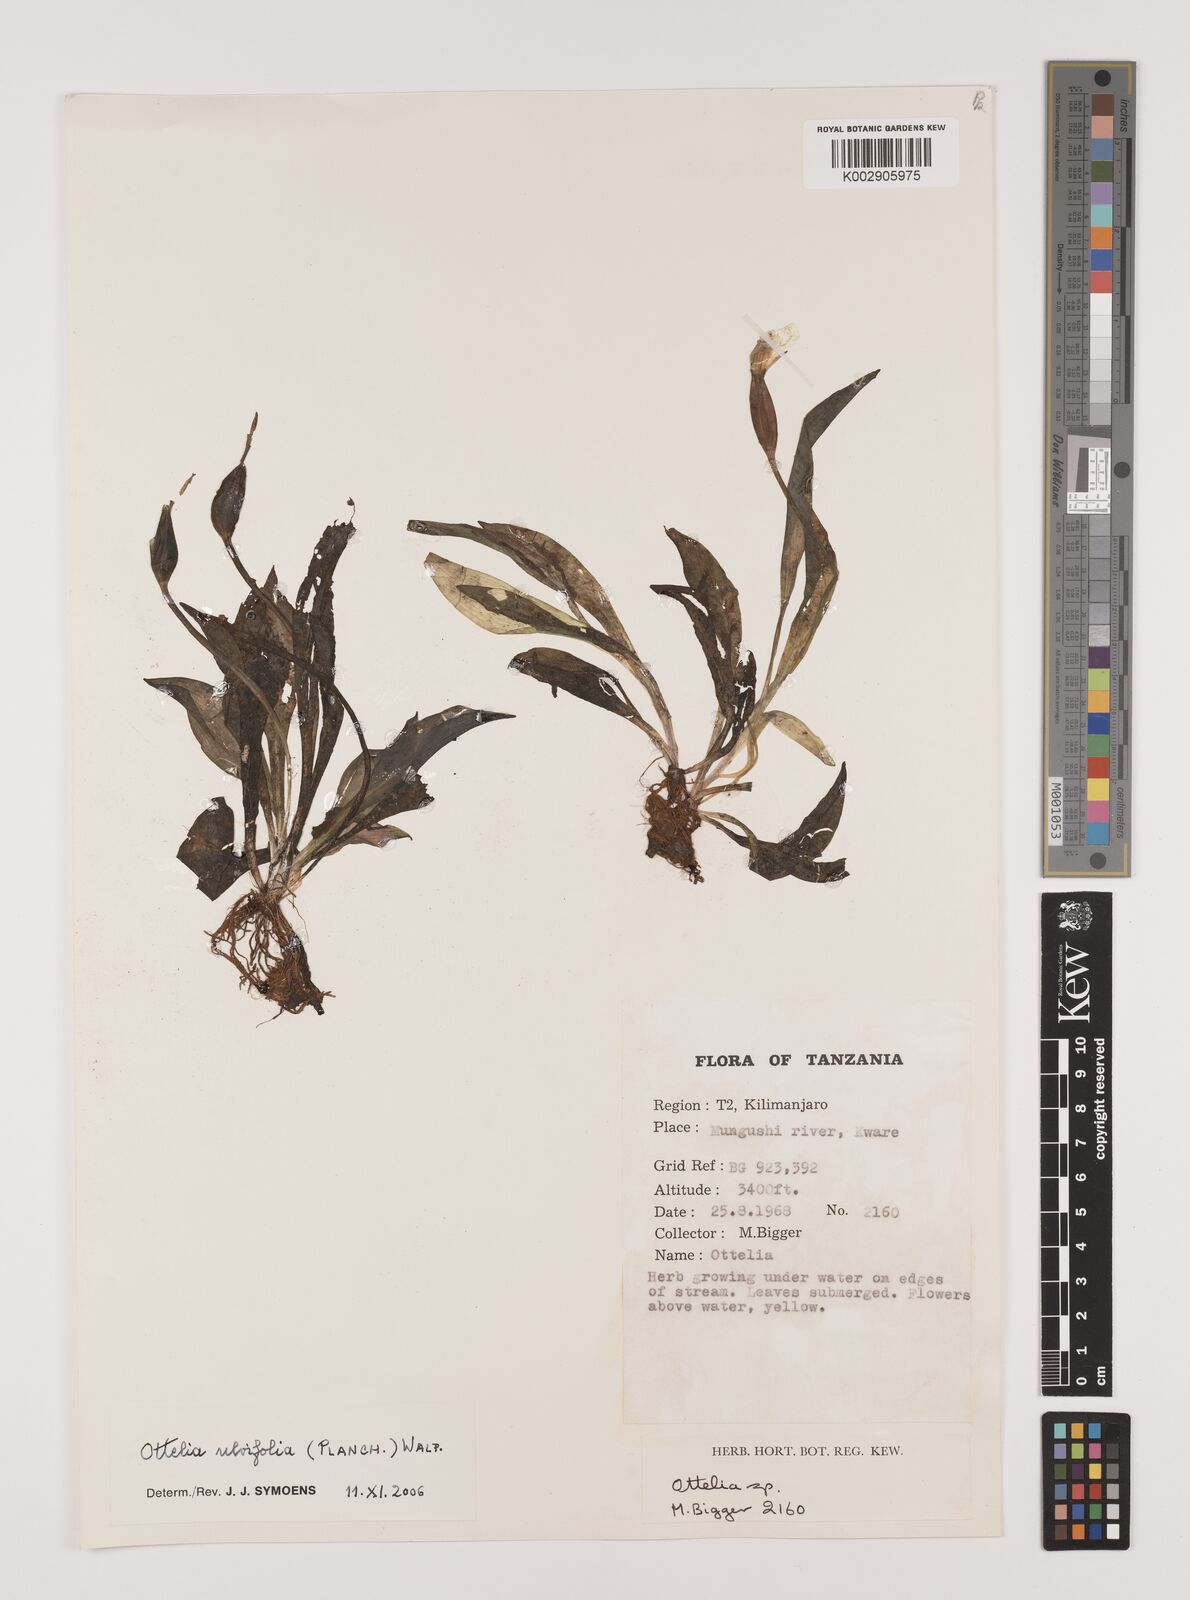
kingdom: Plantae
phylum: Tracheophyta
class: Liliopsida
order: Alismatales
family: Hydrocharitaceae
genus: Ottelia
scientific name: Ottelia ulvifolia
